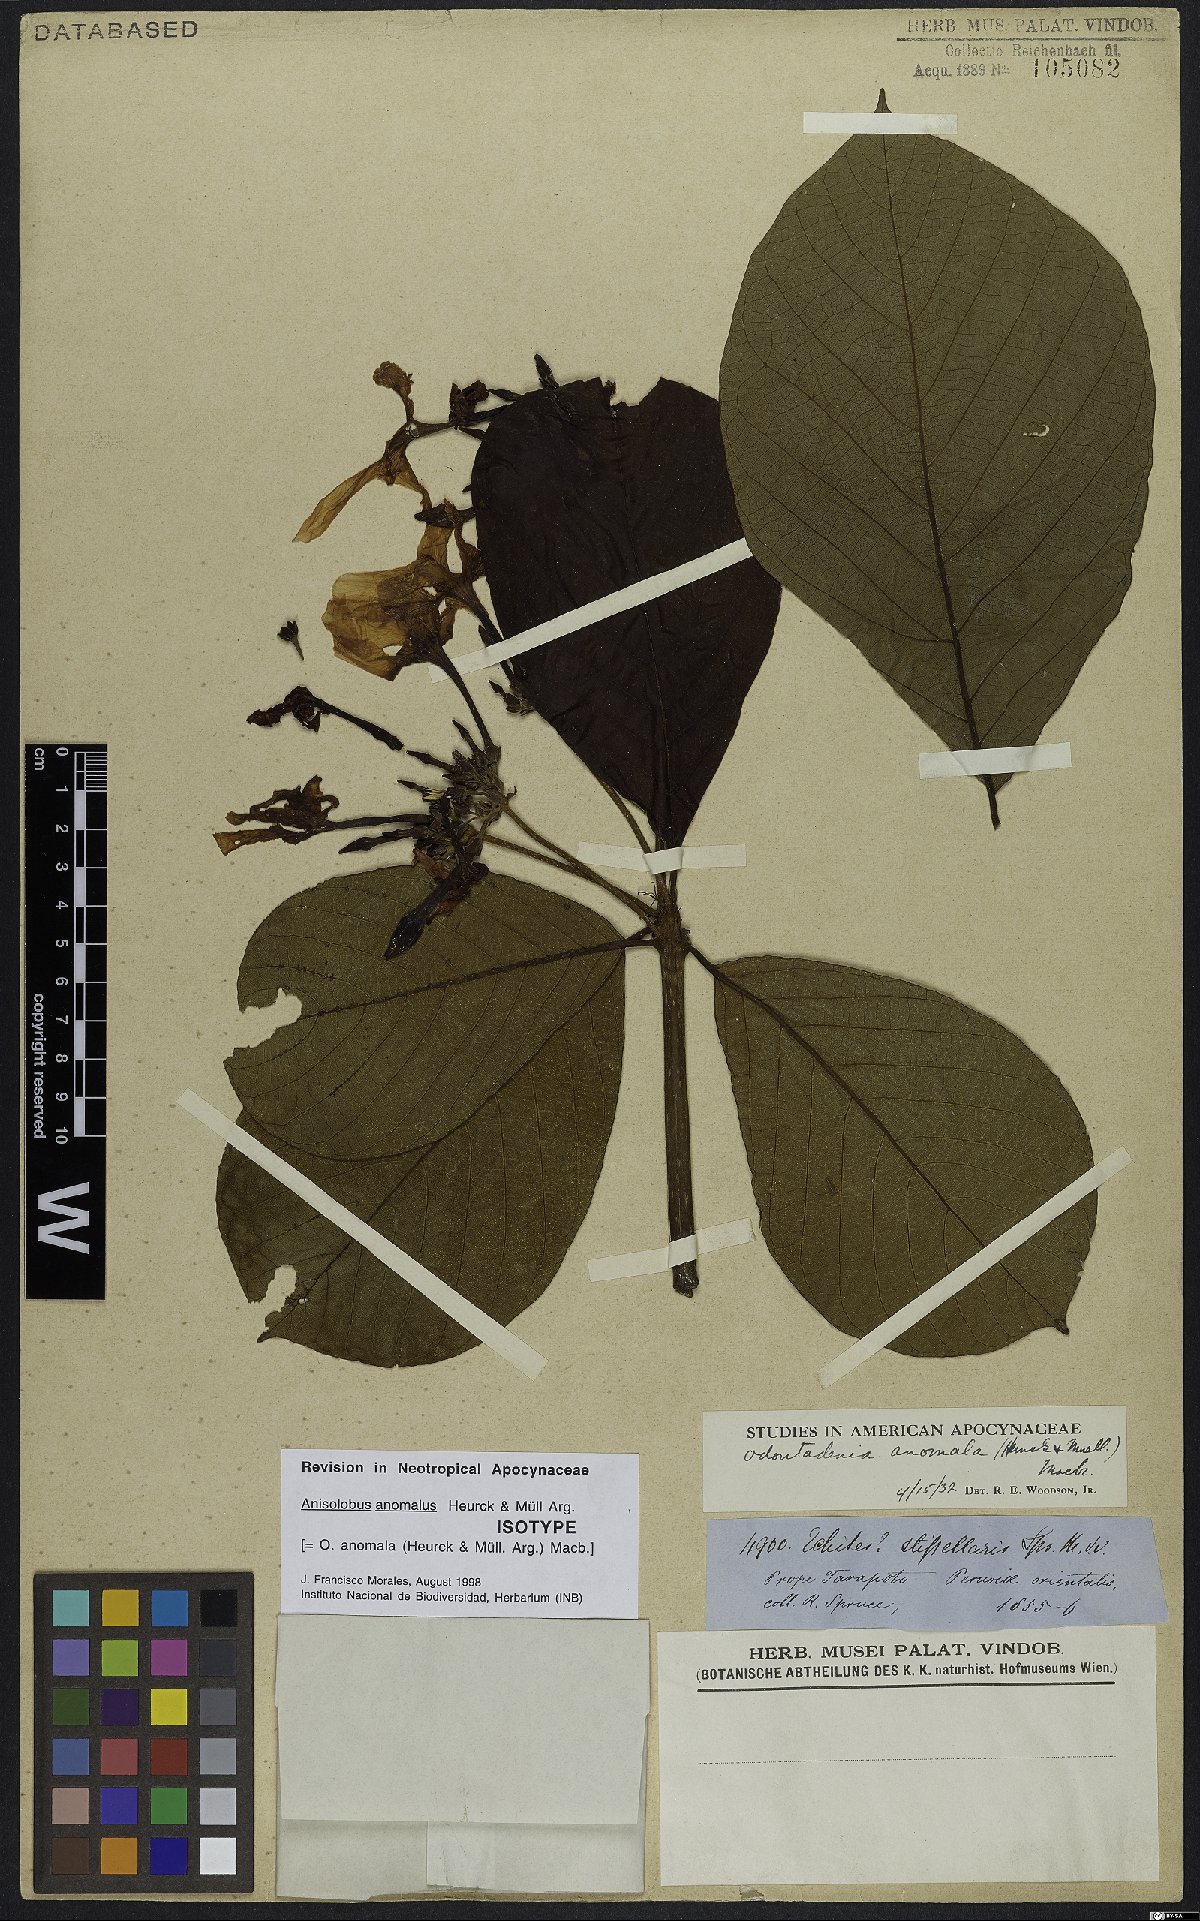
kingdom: Plantae
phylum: Tracheophyta
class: Magnoliopsida
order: Gentianales
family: Apocynaceae
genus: Odontadenia
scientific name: Odontadenia anomala
